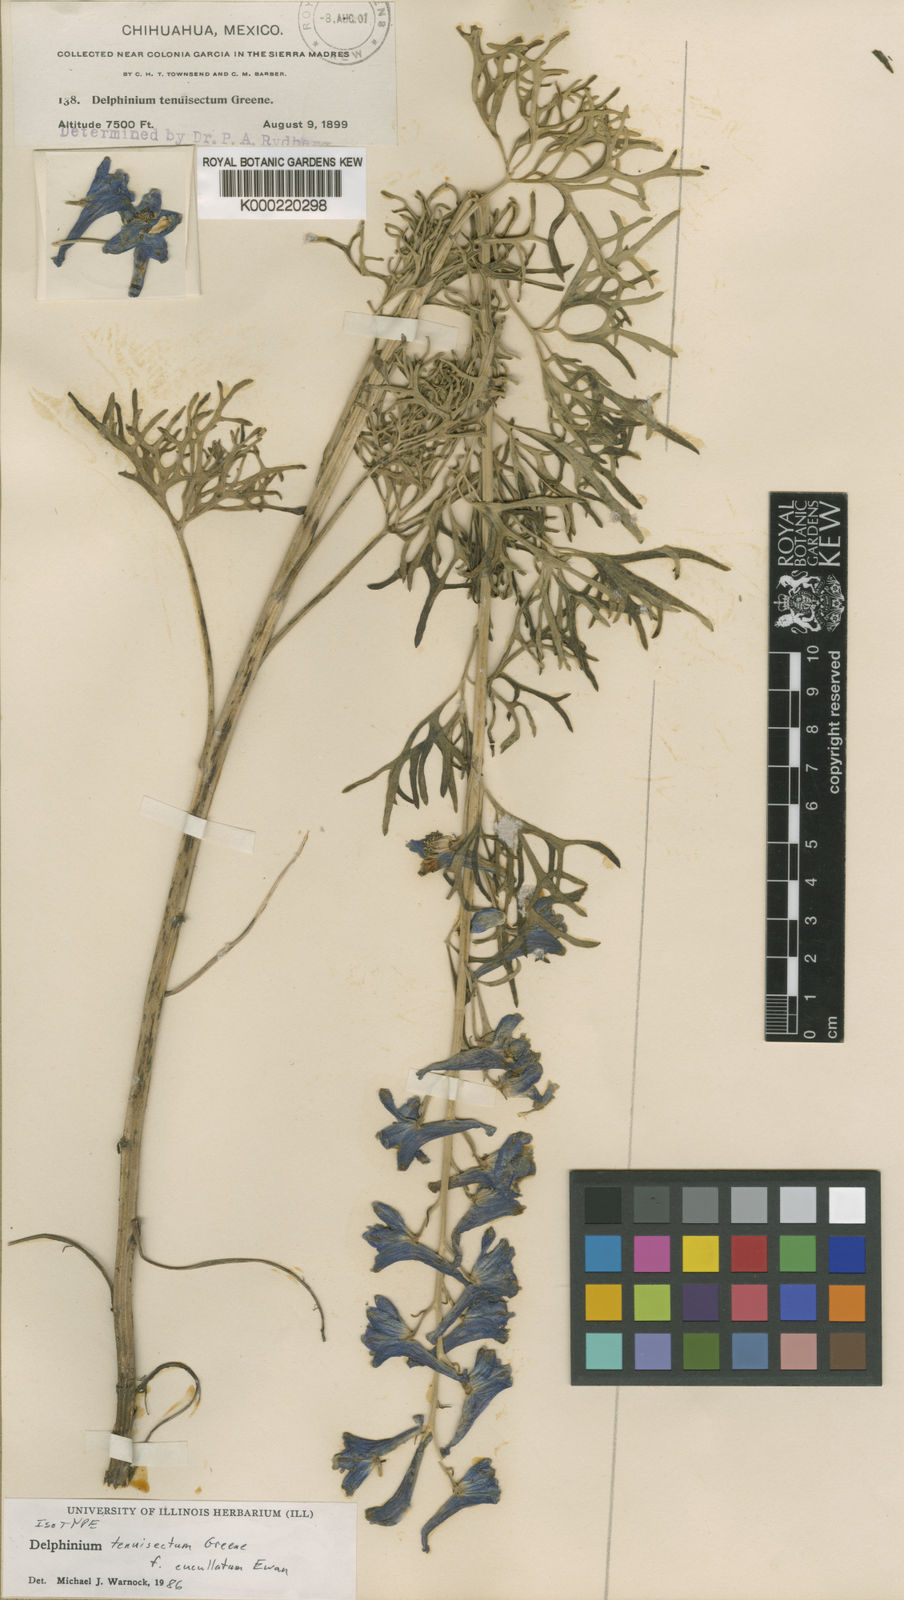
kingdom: Plantae
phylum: Tracheophyta
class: Magnoliopsida
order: Ranunculales
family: Ranunculaceae
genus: Delphinium
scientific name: Delphinium tenuisectum
